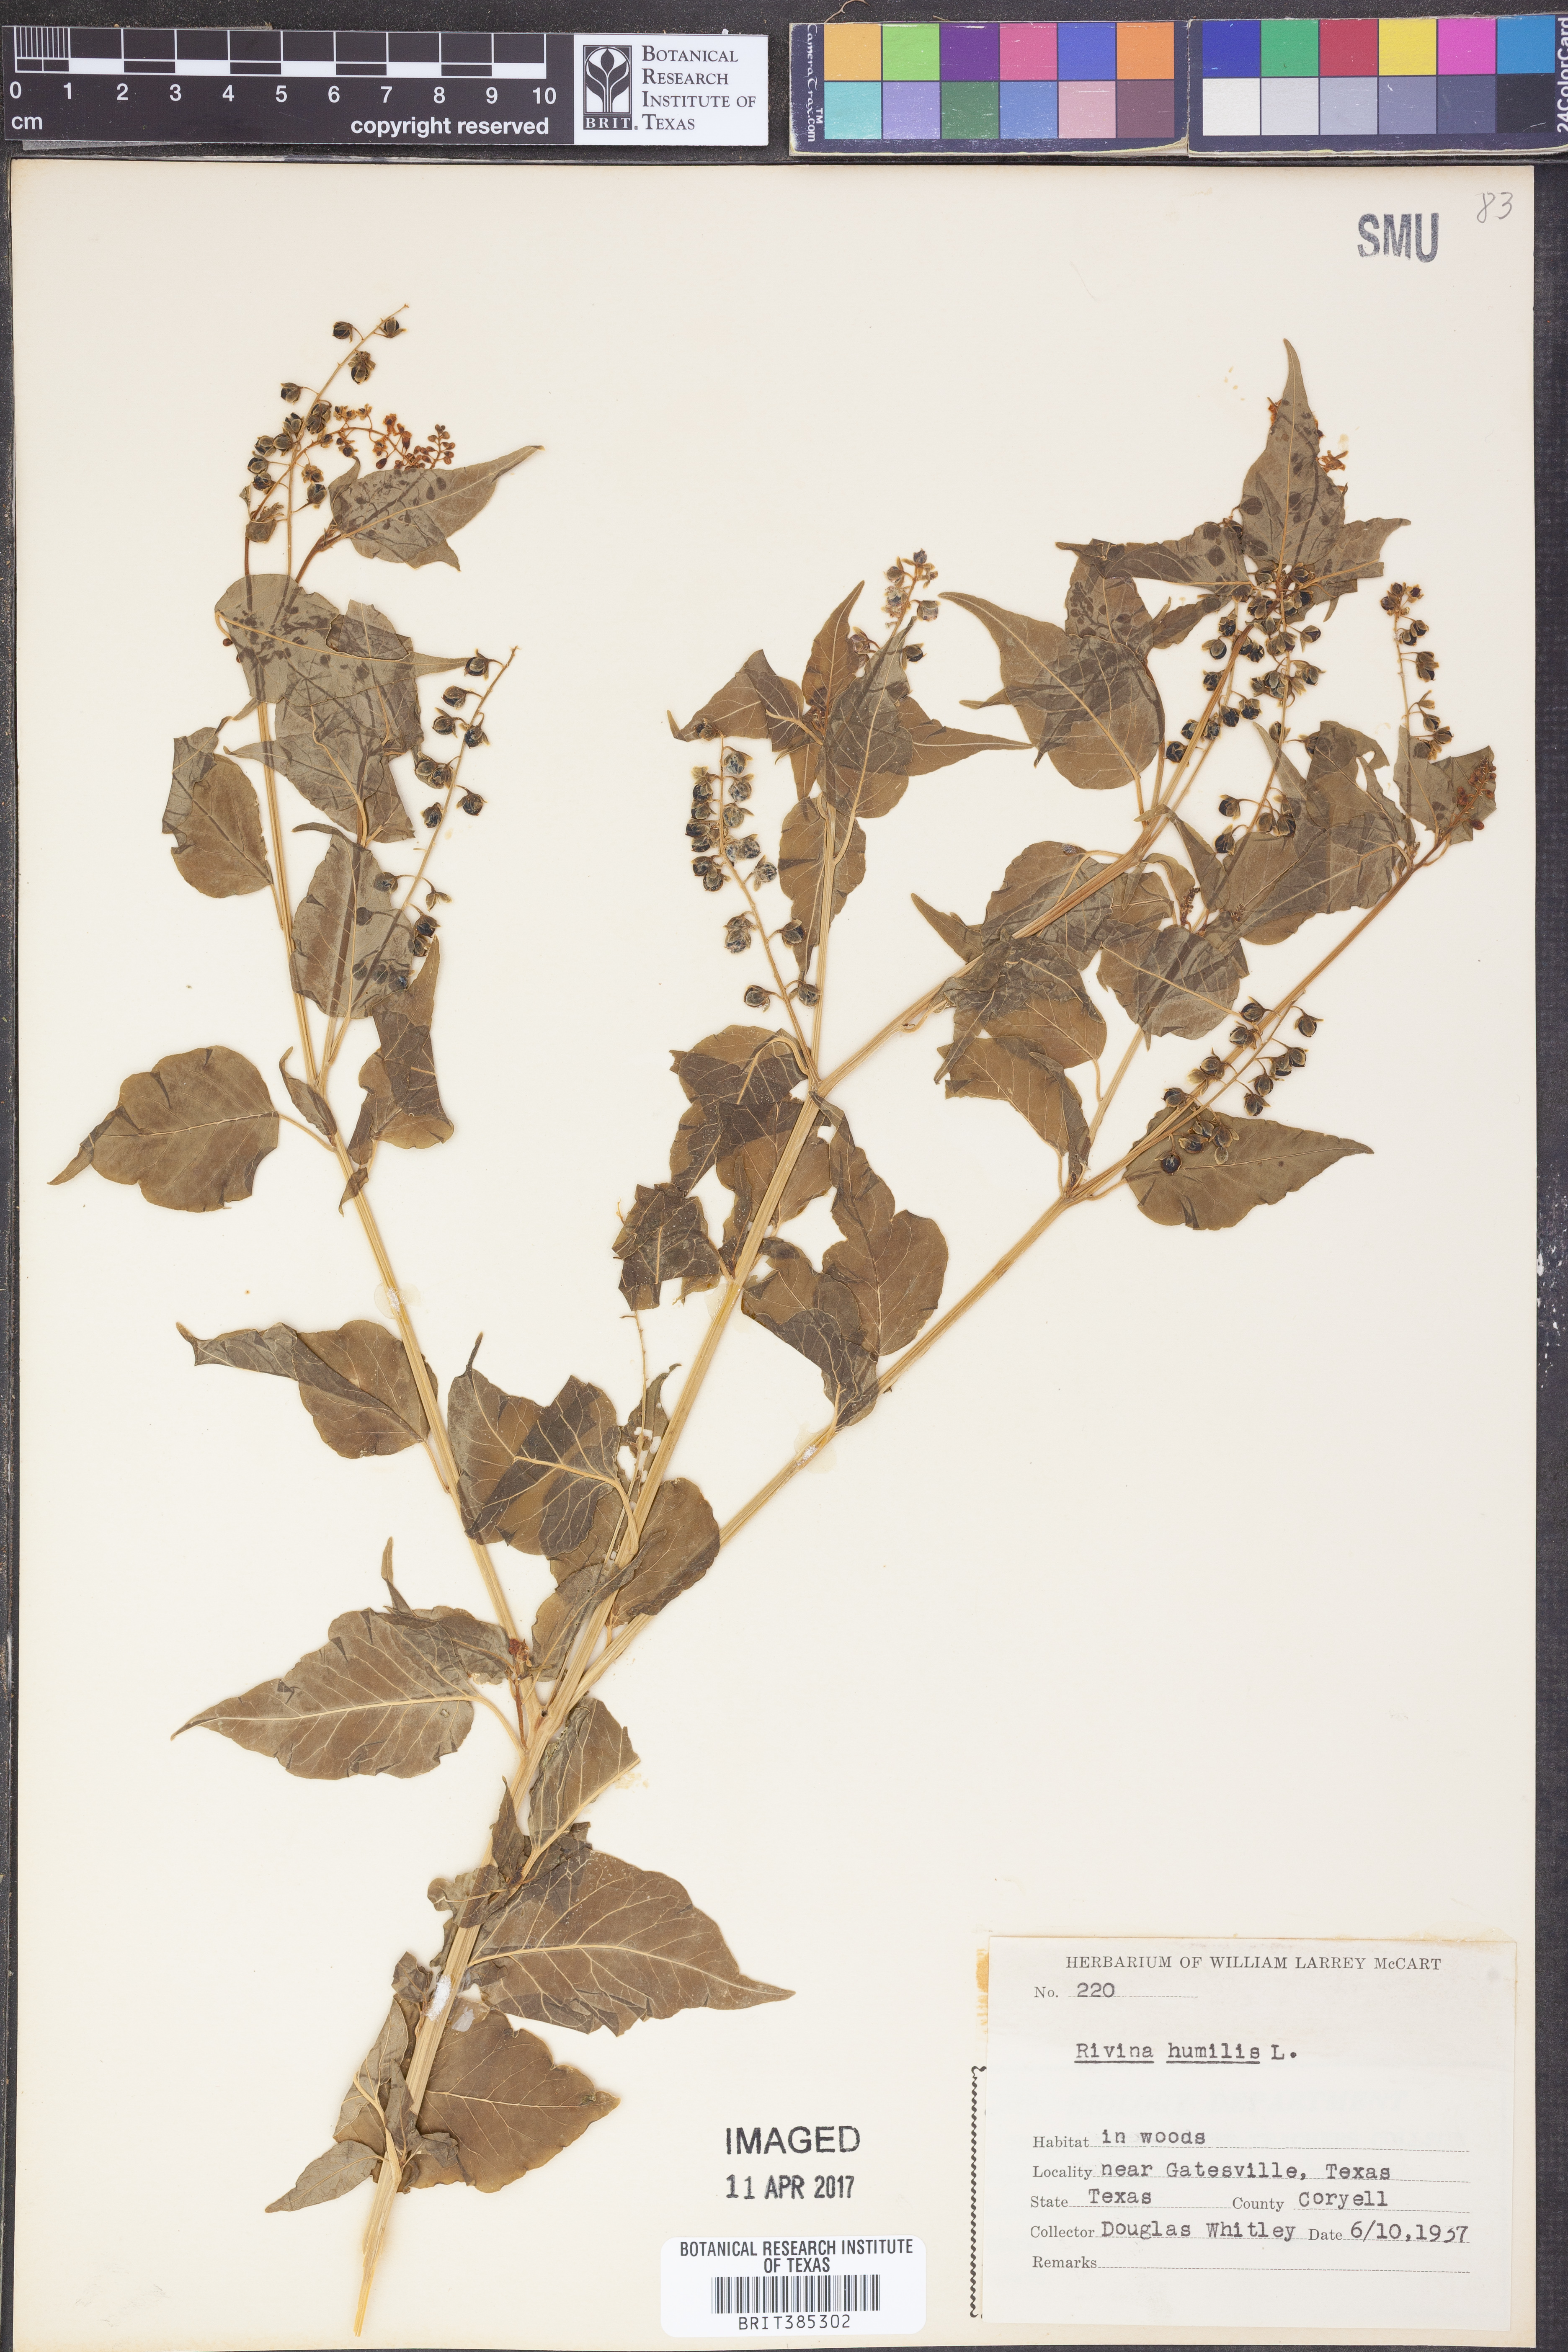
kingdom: Plantae
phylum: Tracheophyta
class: Magnoliopsida
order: Caryophyllales
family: Phytolaccaceae
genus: Rivina
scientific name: Rivina humilis
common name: Rougeplant
